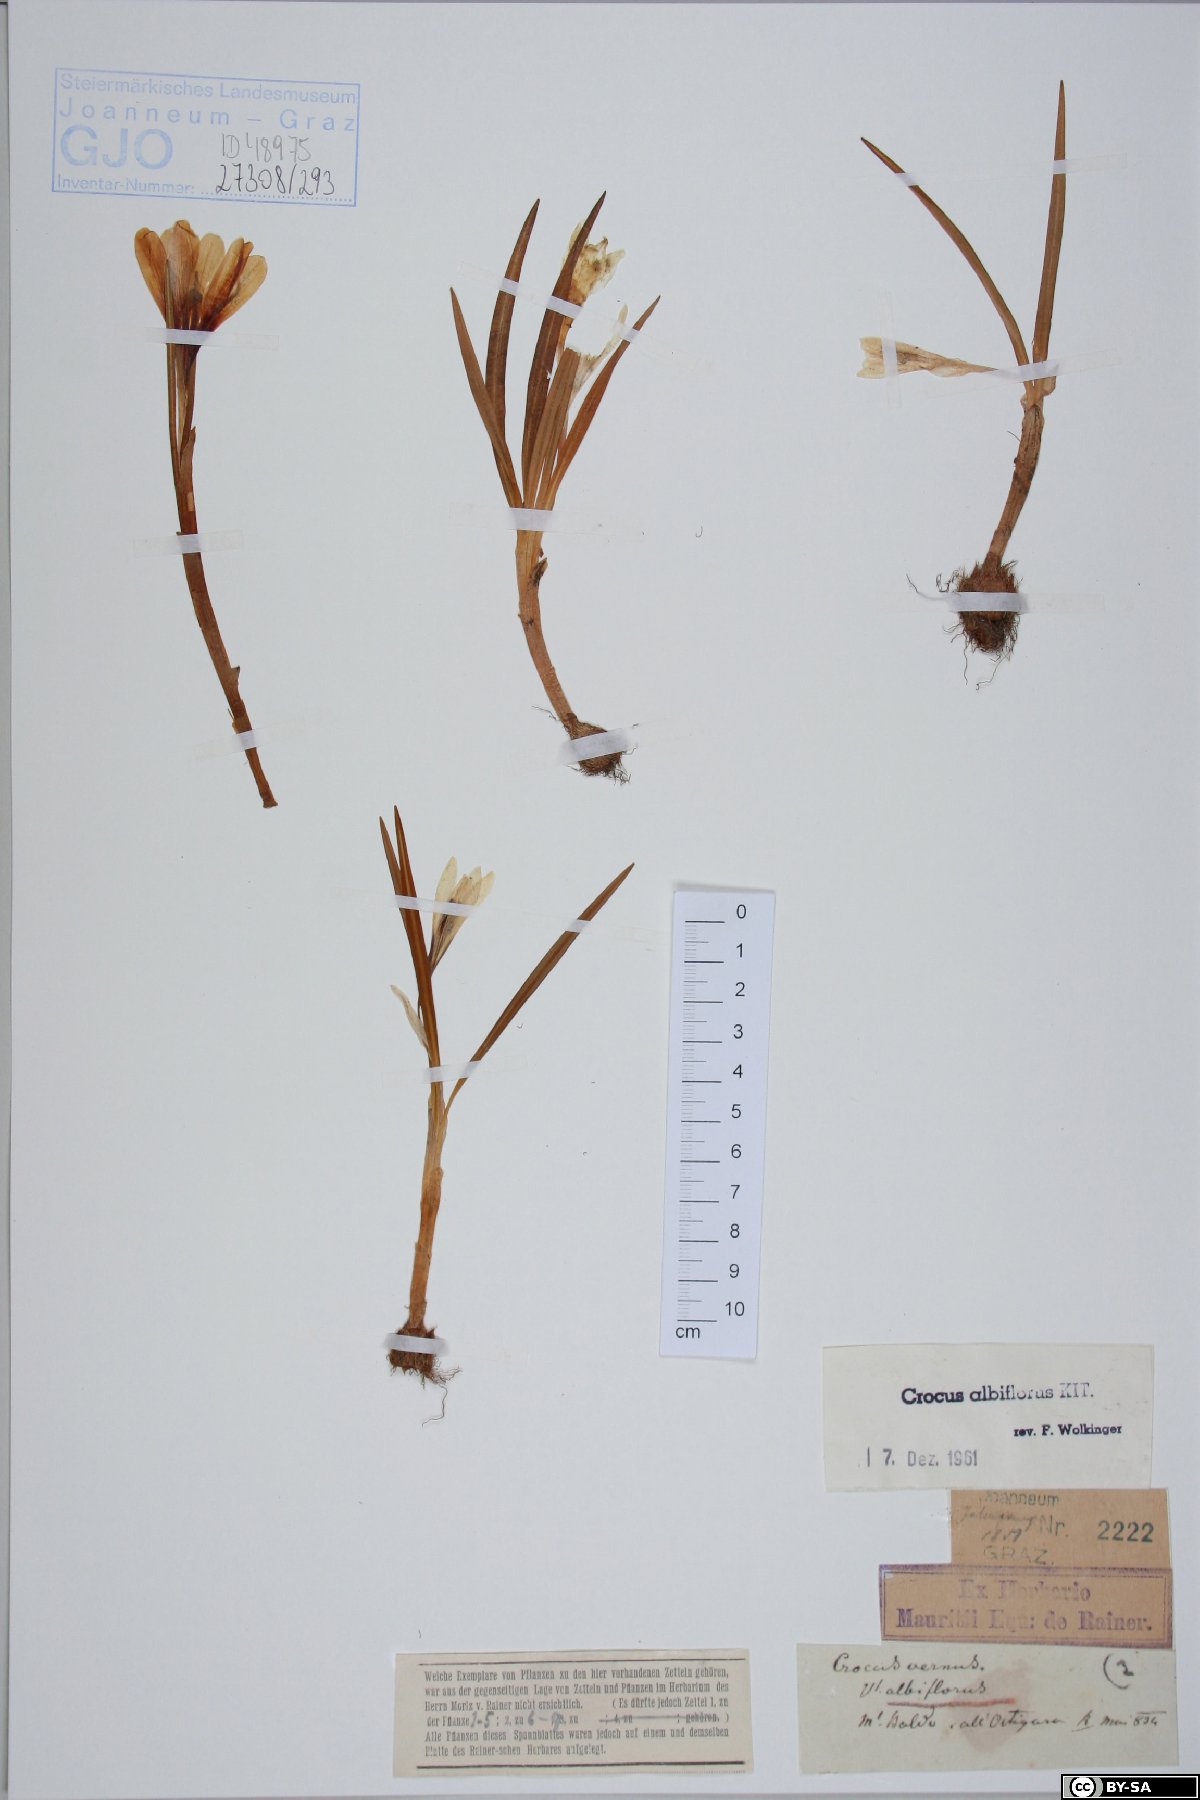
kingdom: Plantae
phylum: Tracheophyta
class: Liliopsida
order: Asparagales
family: Iridaceae
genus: Crocus
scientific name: Crocus vernus
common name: Spring crocus
